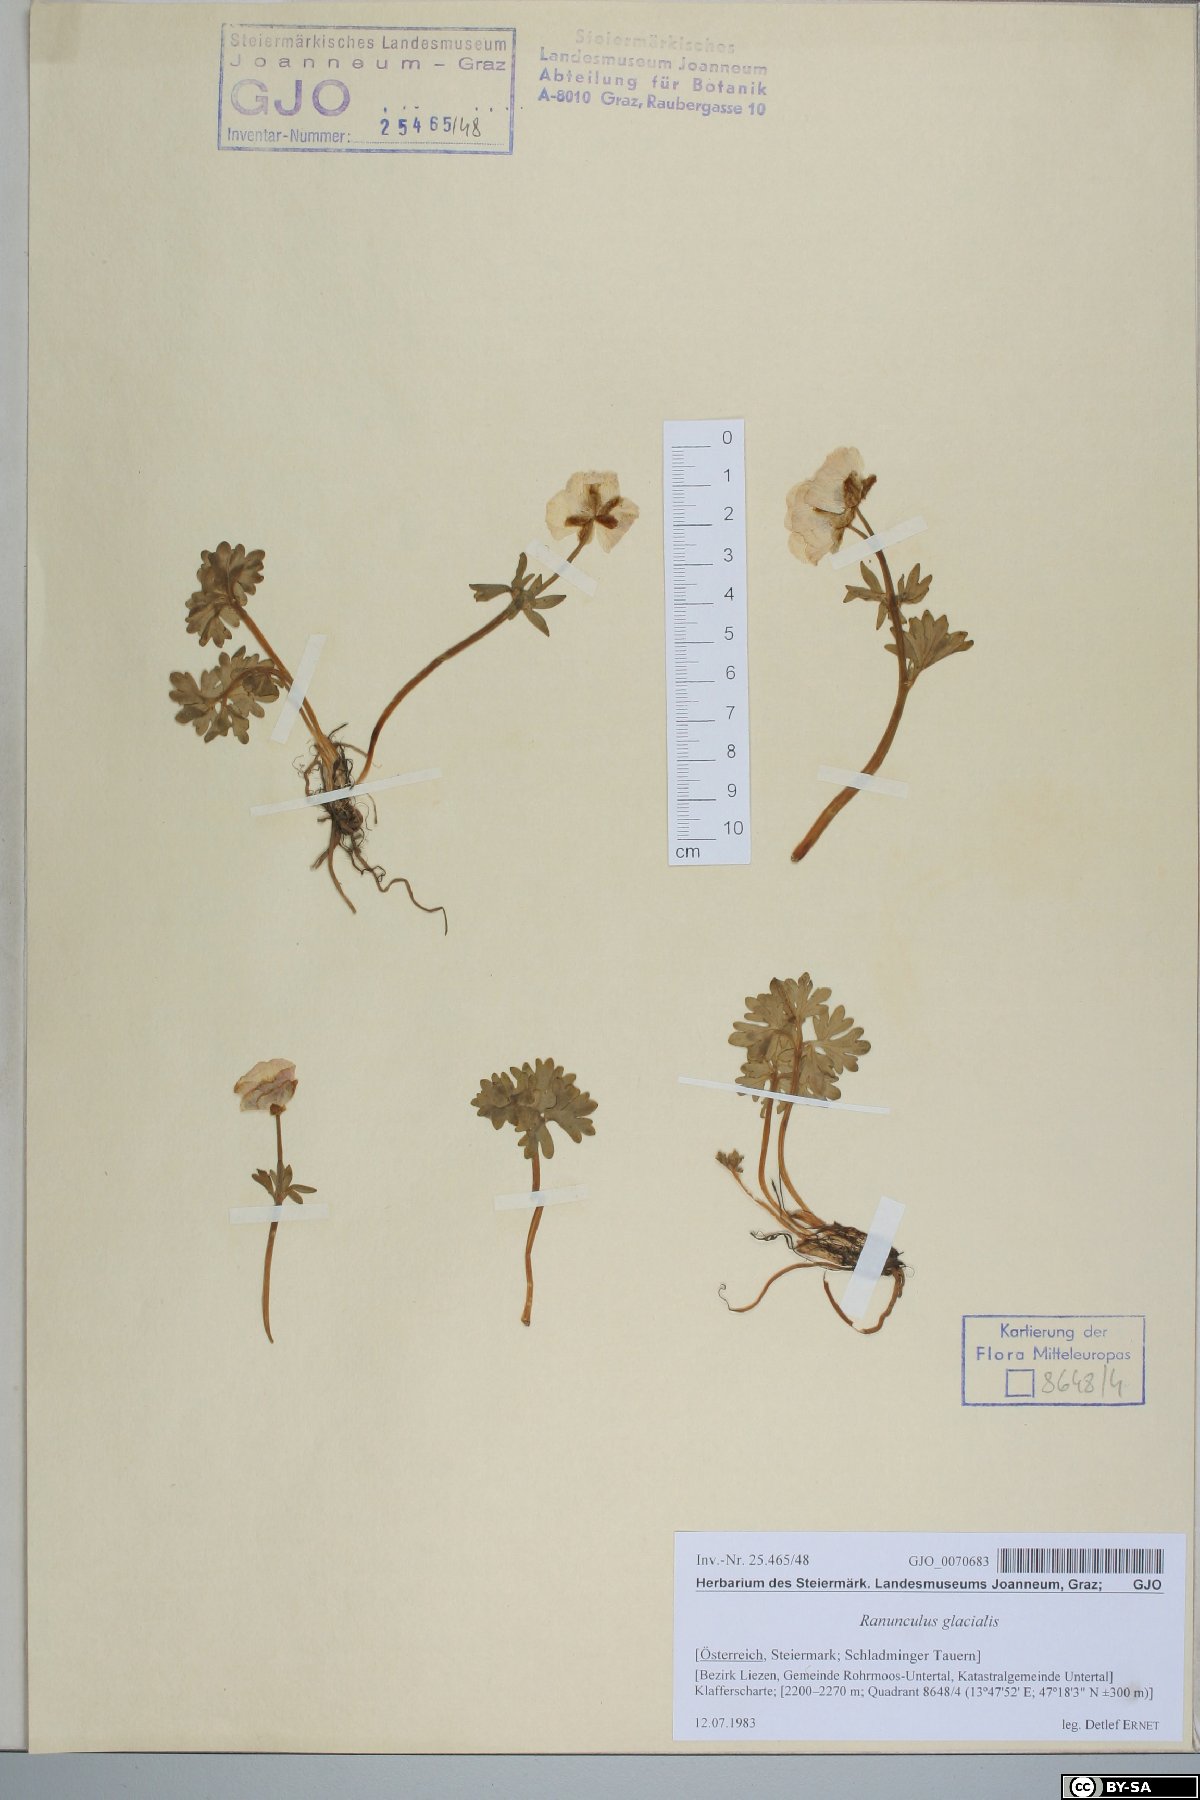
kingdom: Plantae
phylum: Tracheophyta
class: Magnoliopsida
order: Ranunculales
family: Ranunculaceae
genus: Ranunculus
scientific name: Ranunculus glacialis
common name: Glacier buttercup
